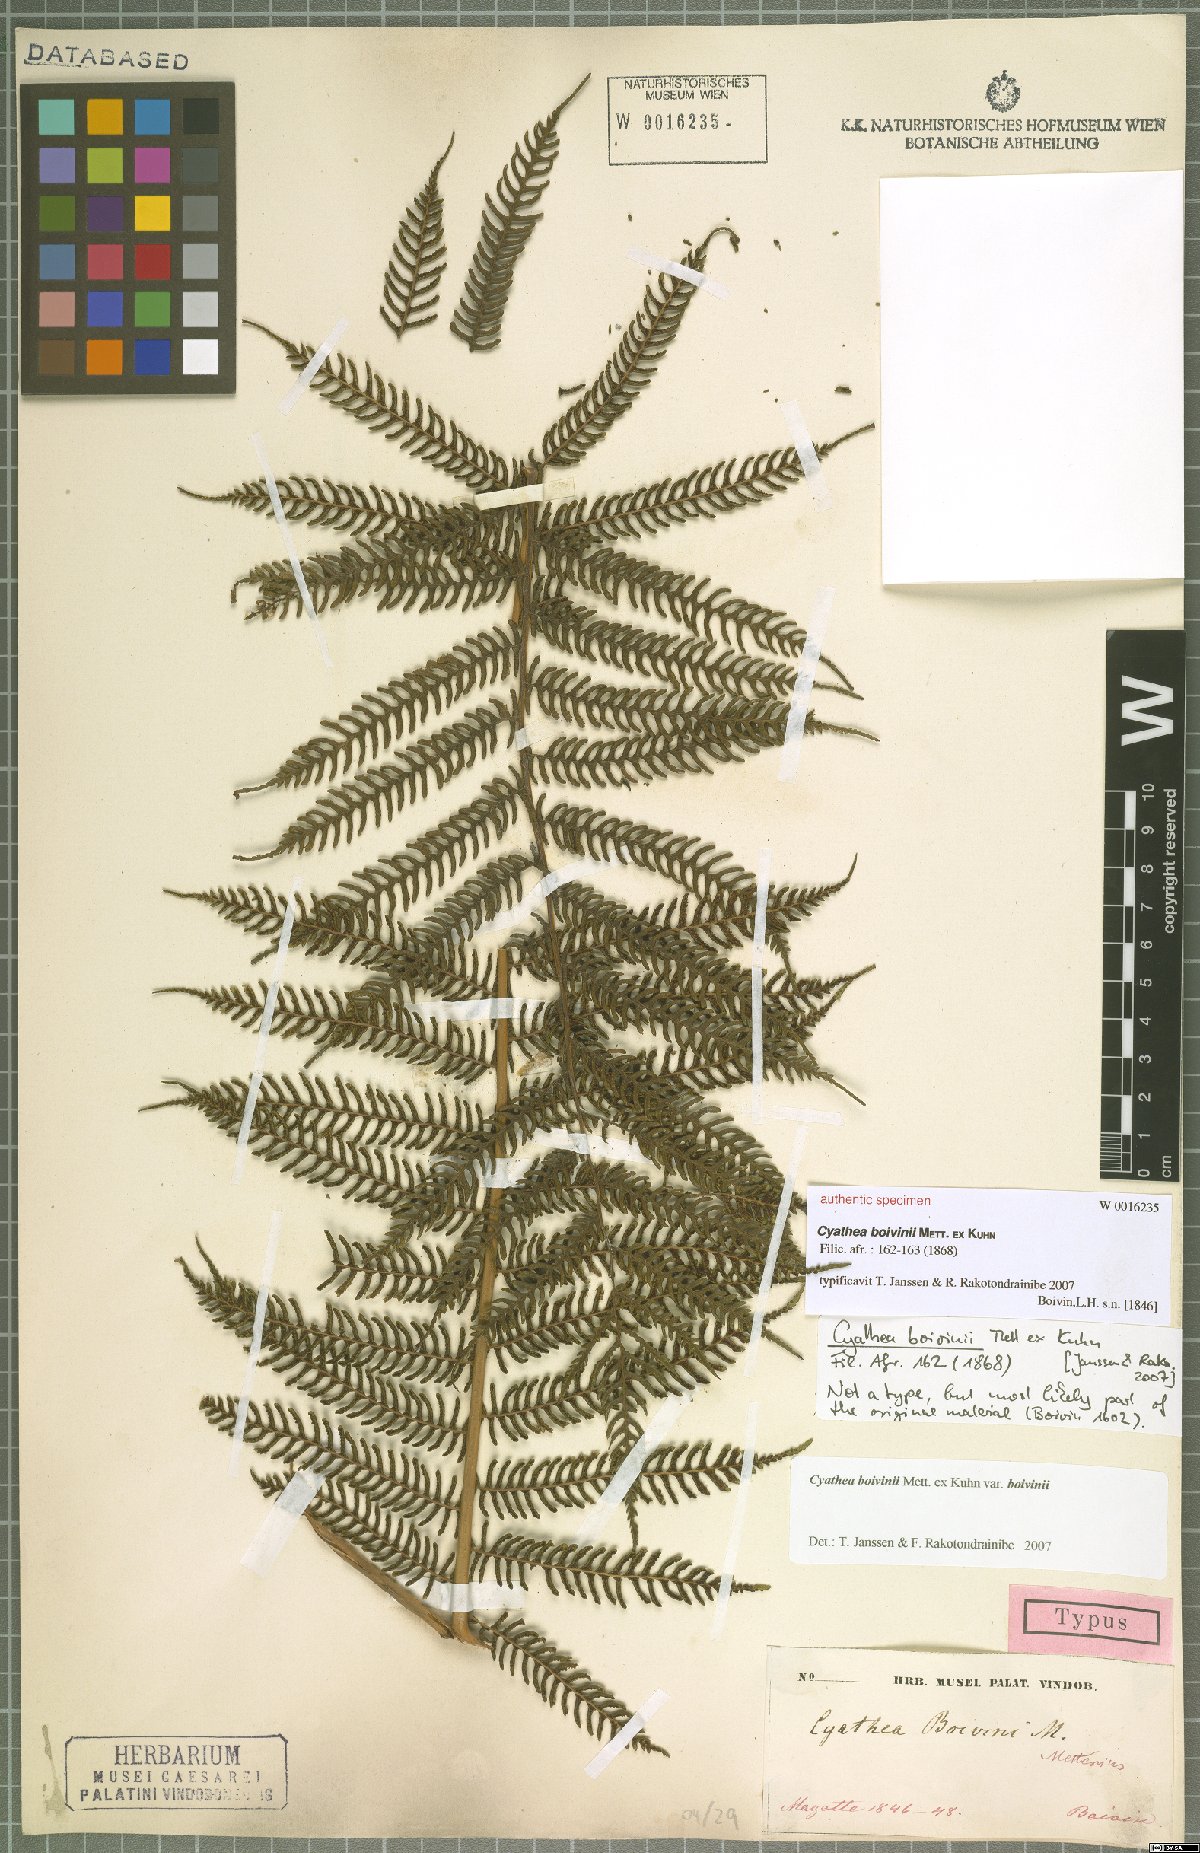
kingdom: Plantae
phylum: Tracheophyta
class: Polypodiopsida
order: Cyatheales
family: Cyatheaceae
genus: Alsophila
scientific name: Alsophila hyacinthei
